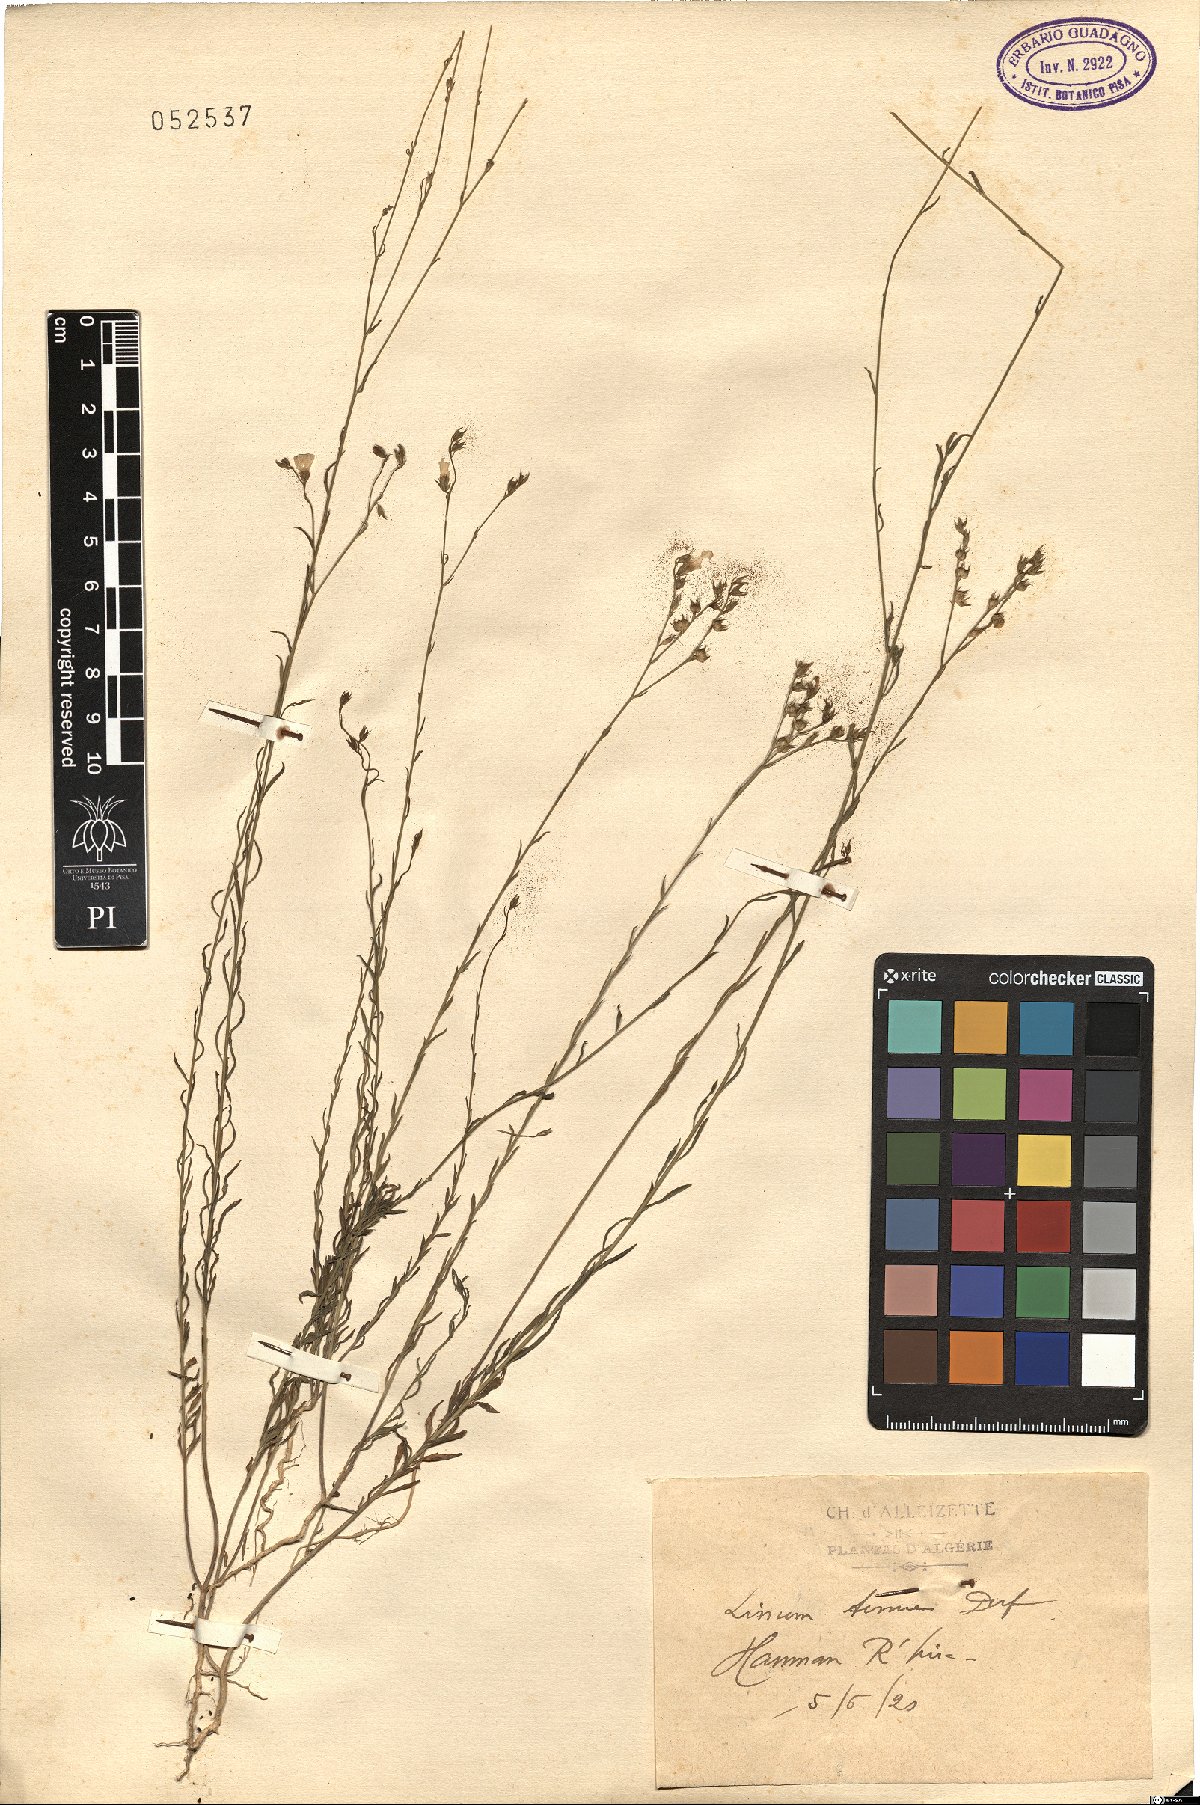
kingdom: Plantae
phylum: Tracheophyta
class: Magnoliopsida
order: Malpighiales
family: Linaceae
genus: Linum
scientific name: Linum tenue
